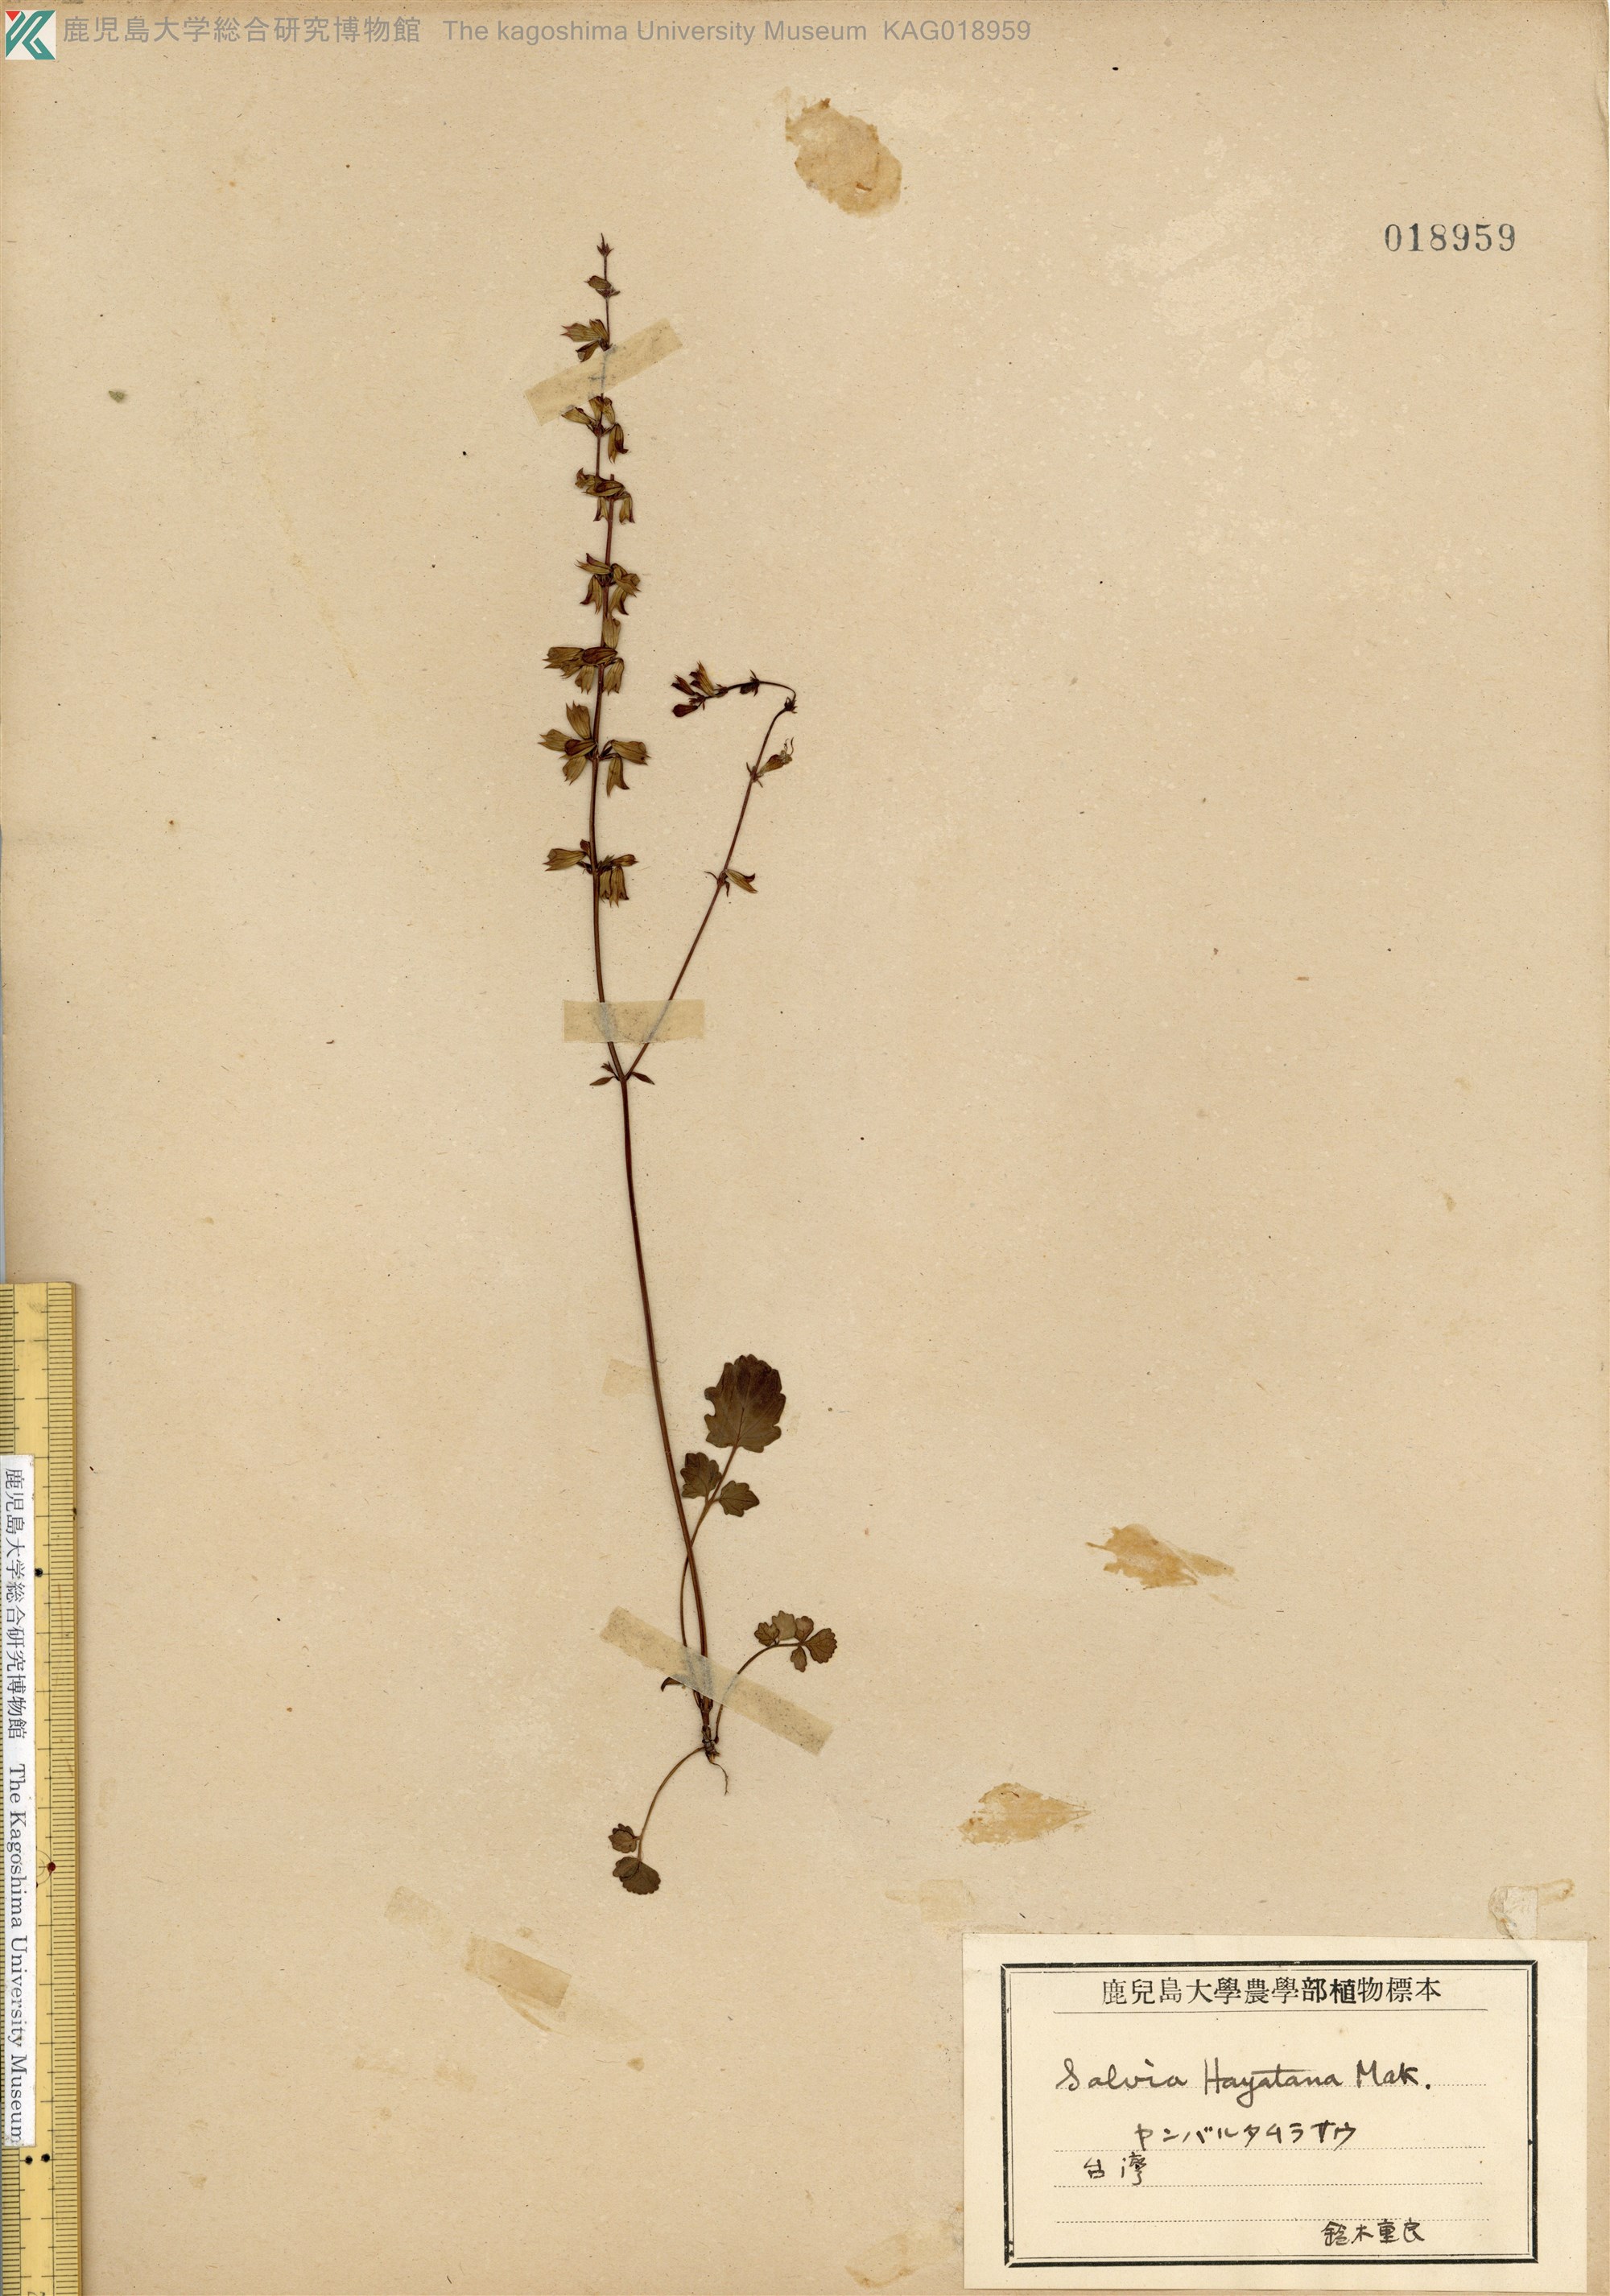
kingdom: Plantae
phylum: Tracheophyta
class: Magnoliopsida
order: Lamiales
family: Lamiaceae
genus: Salvia
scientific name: Salvia hayatae
